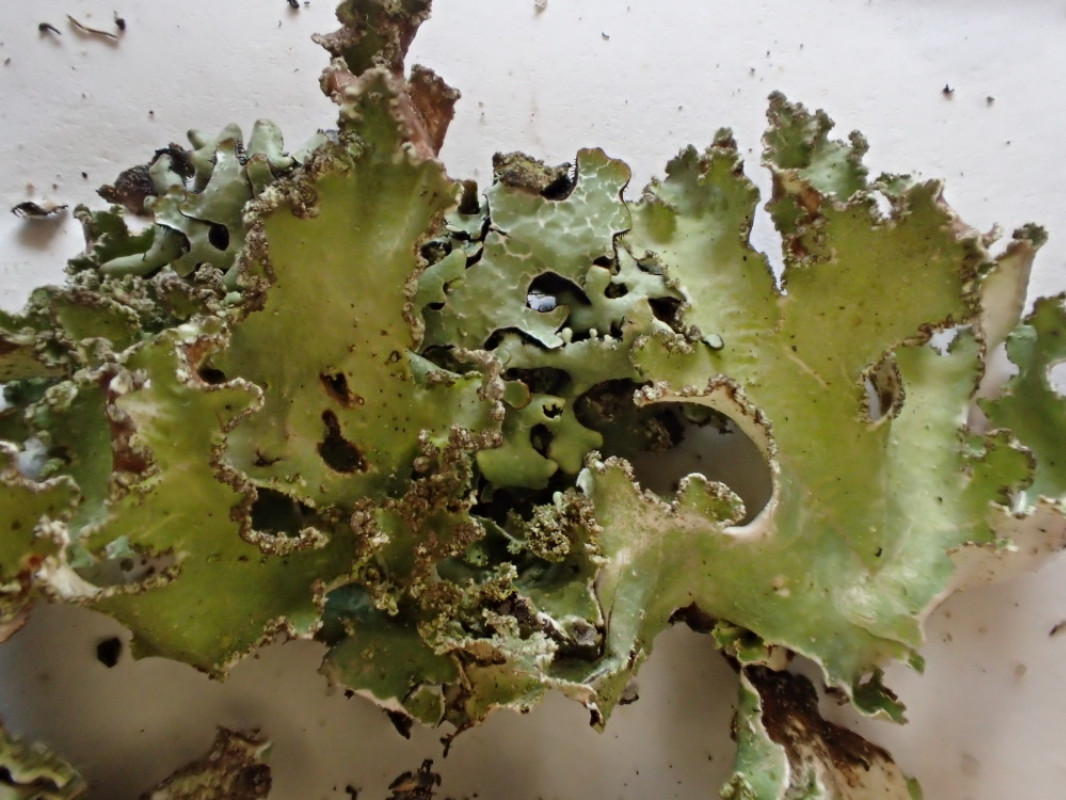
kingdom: Fungi
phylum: Ascomycota
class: Lecanoromycetes
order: Lecanorales
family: Parmeliaceae
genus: Platismatia
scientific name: Platismatia glauca
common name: blågrå papirlav
